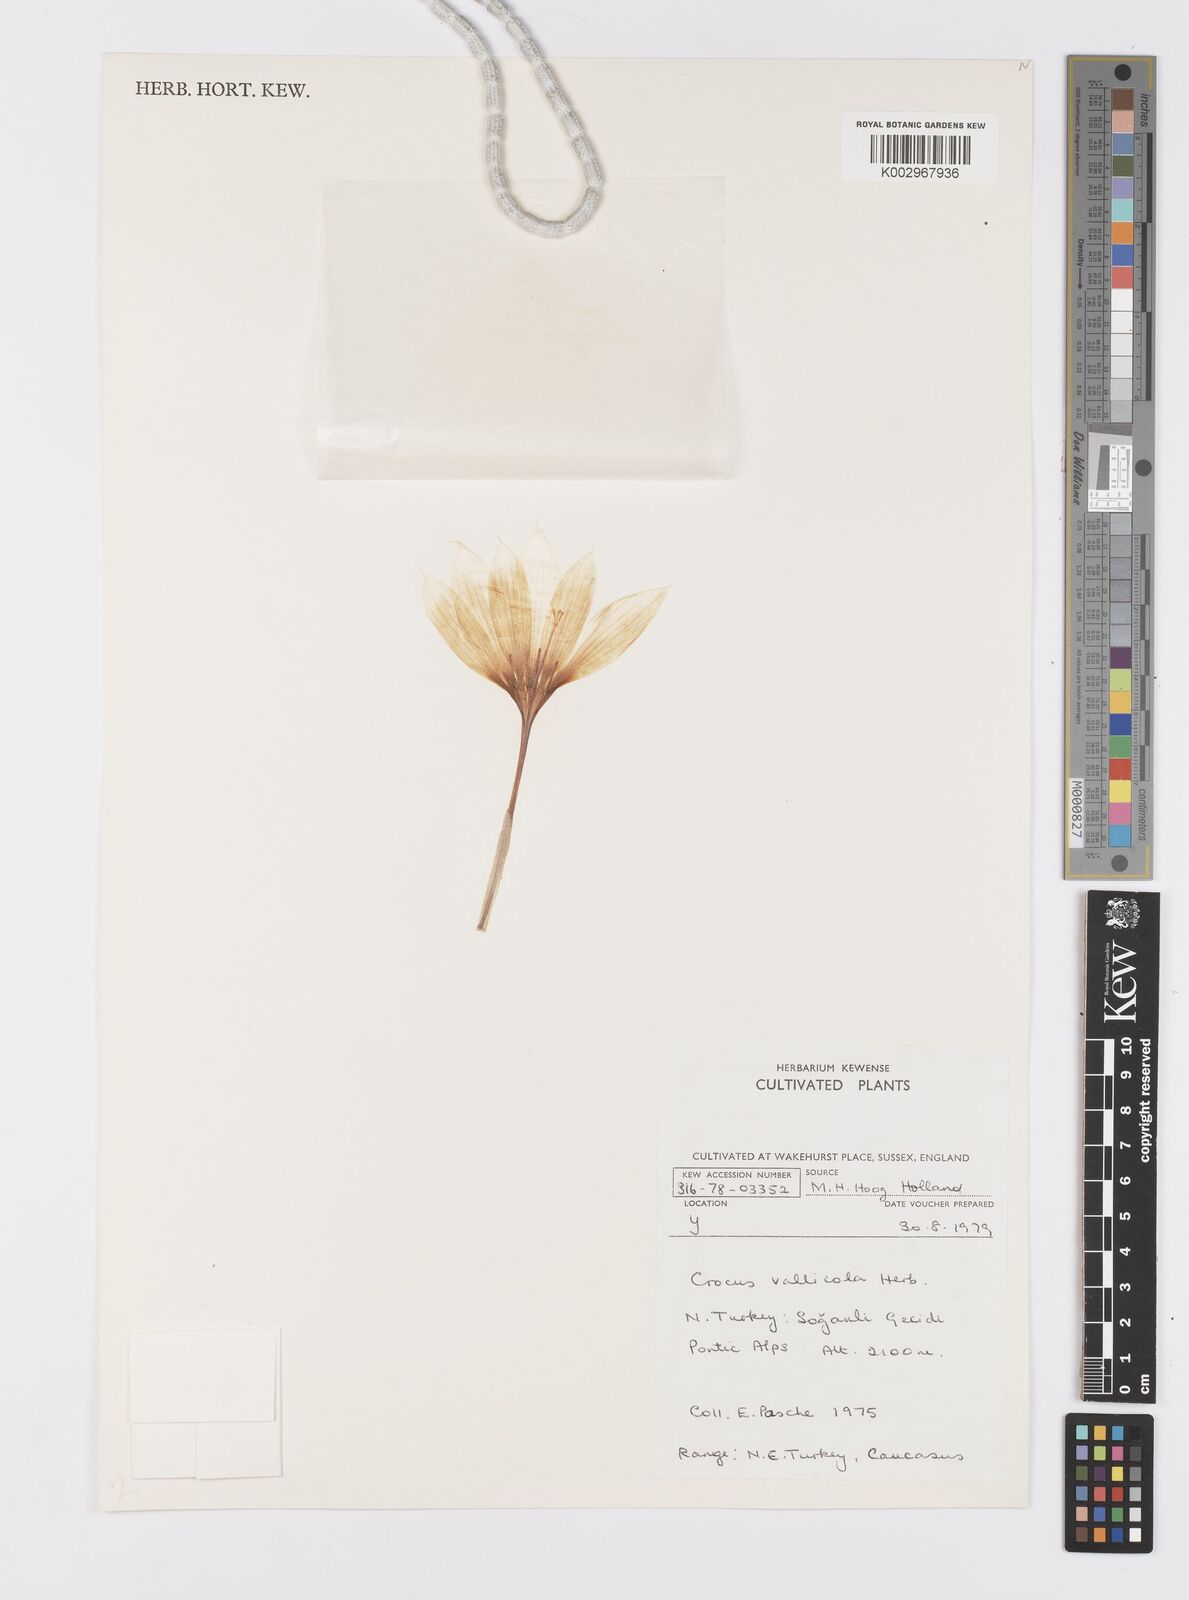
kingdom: Plantae
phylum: Tracheophyta
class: Liliopsida
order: Asparagales
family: Iridaceae
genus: Crocus
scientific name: Crocus vallicola
